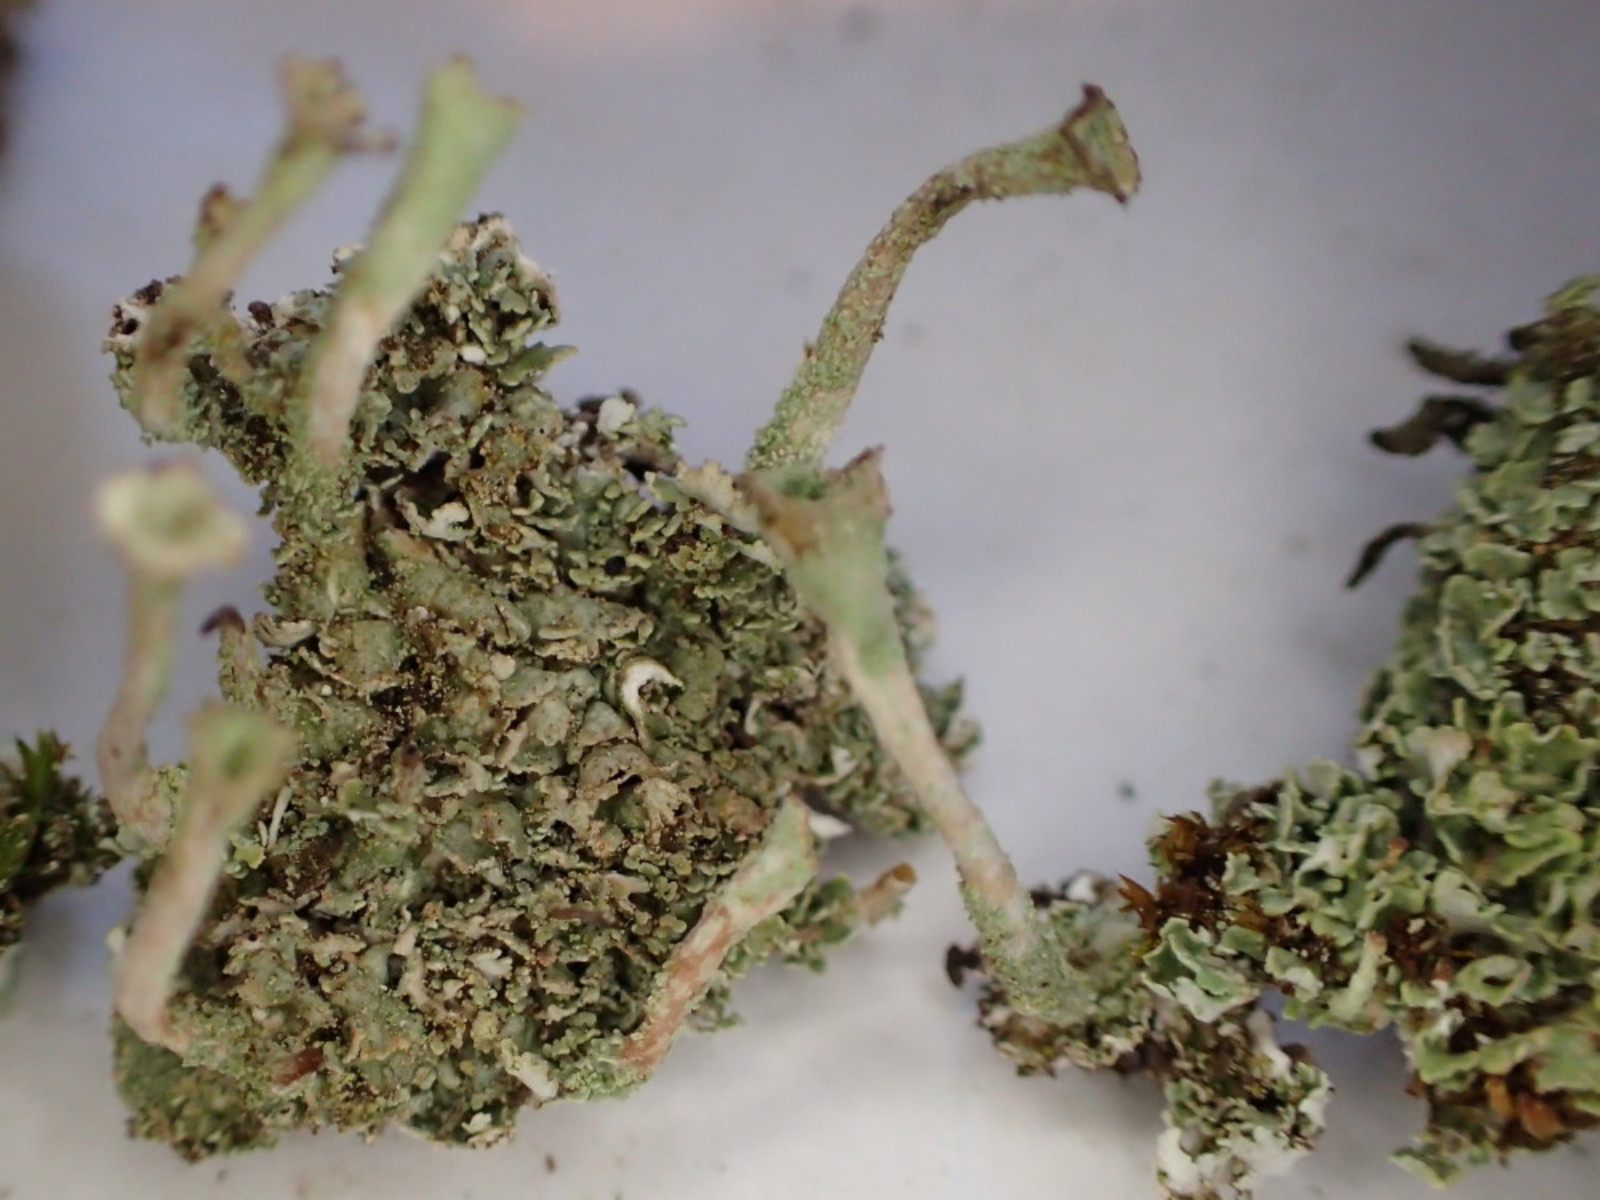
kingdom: Fungi
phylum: Ascomycota
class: Lecanoromycetes
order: Lecanorales
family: Cladoniaceae
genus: Cladonia
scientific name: Cladonia fimbriata
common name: bleggrøn bægerlav
